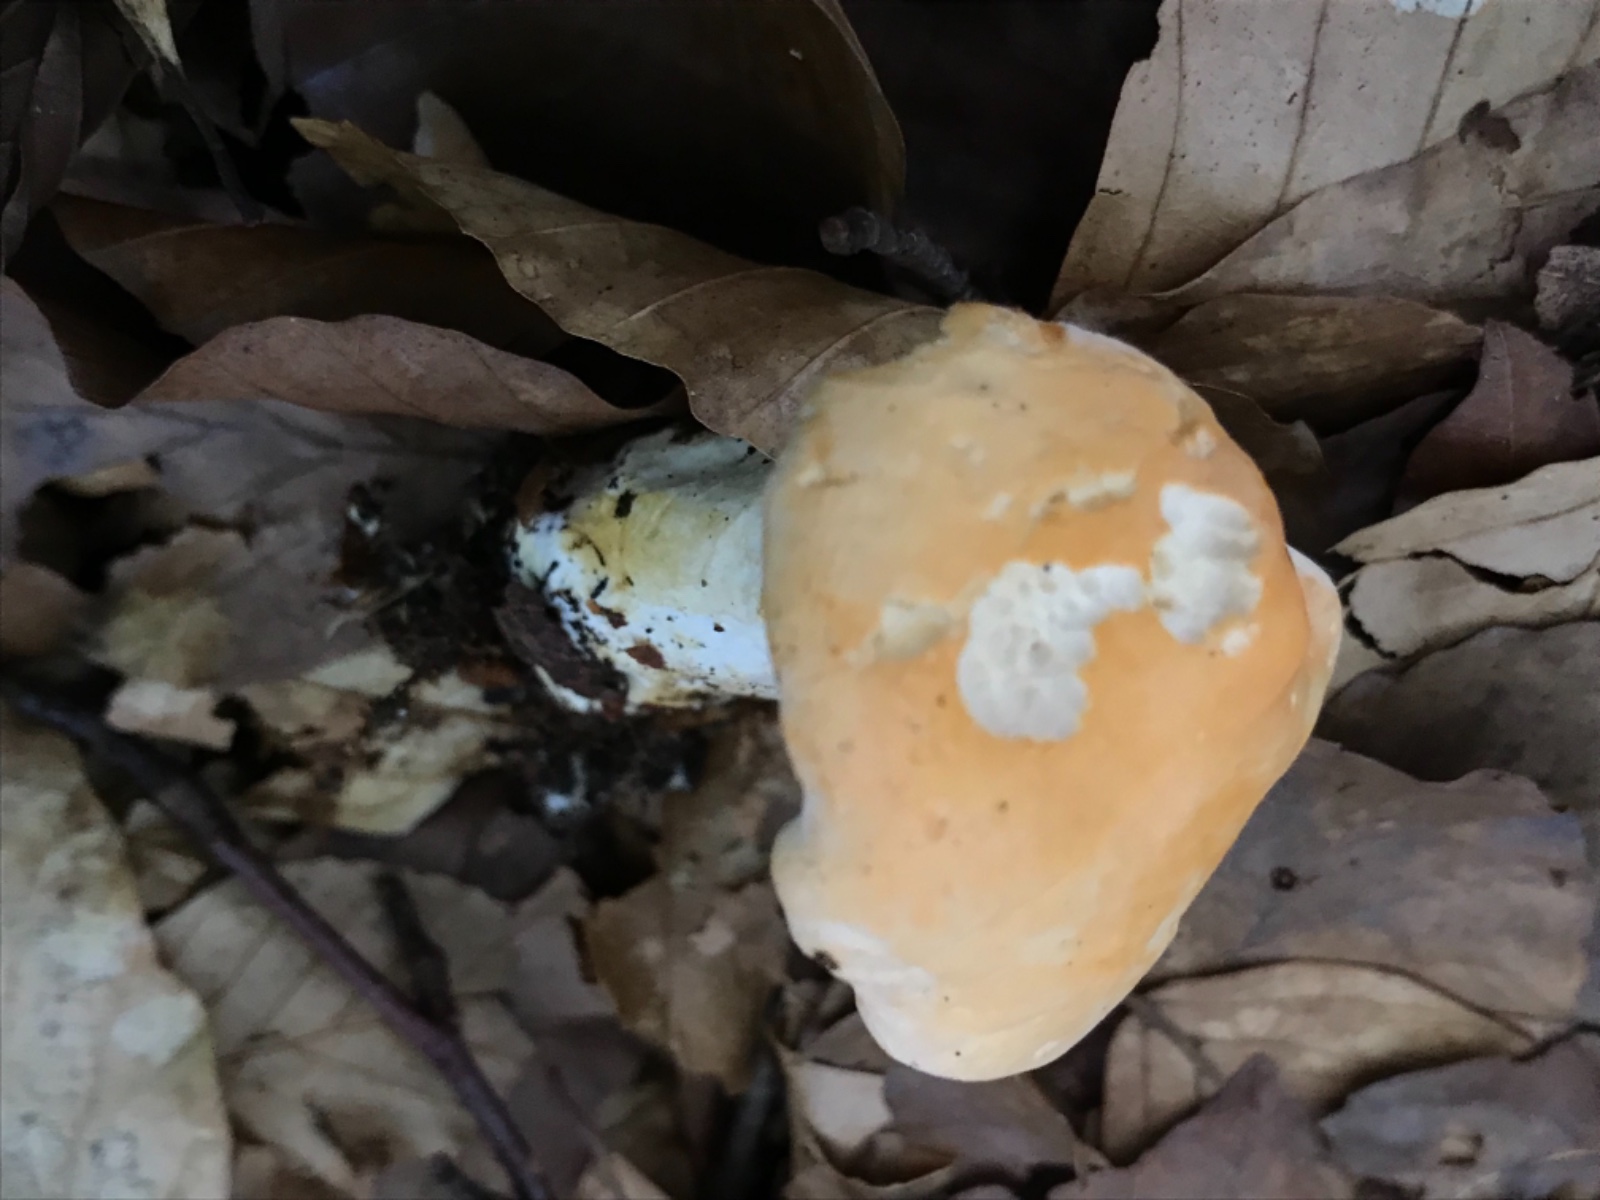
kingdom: Fungi
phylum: Basidiomycota
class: Agaricomycetes
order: Cantharellales
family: Hydnaceae
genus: Hydnum
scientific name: Hydnum
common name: pigsvamp
